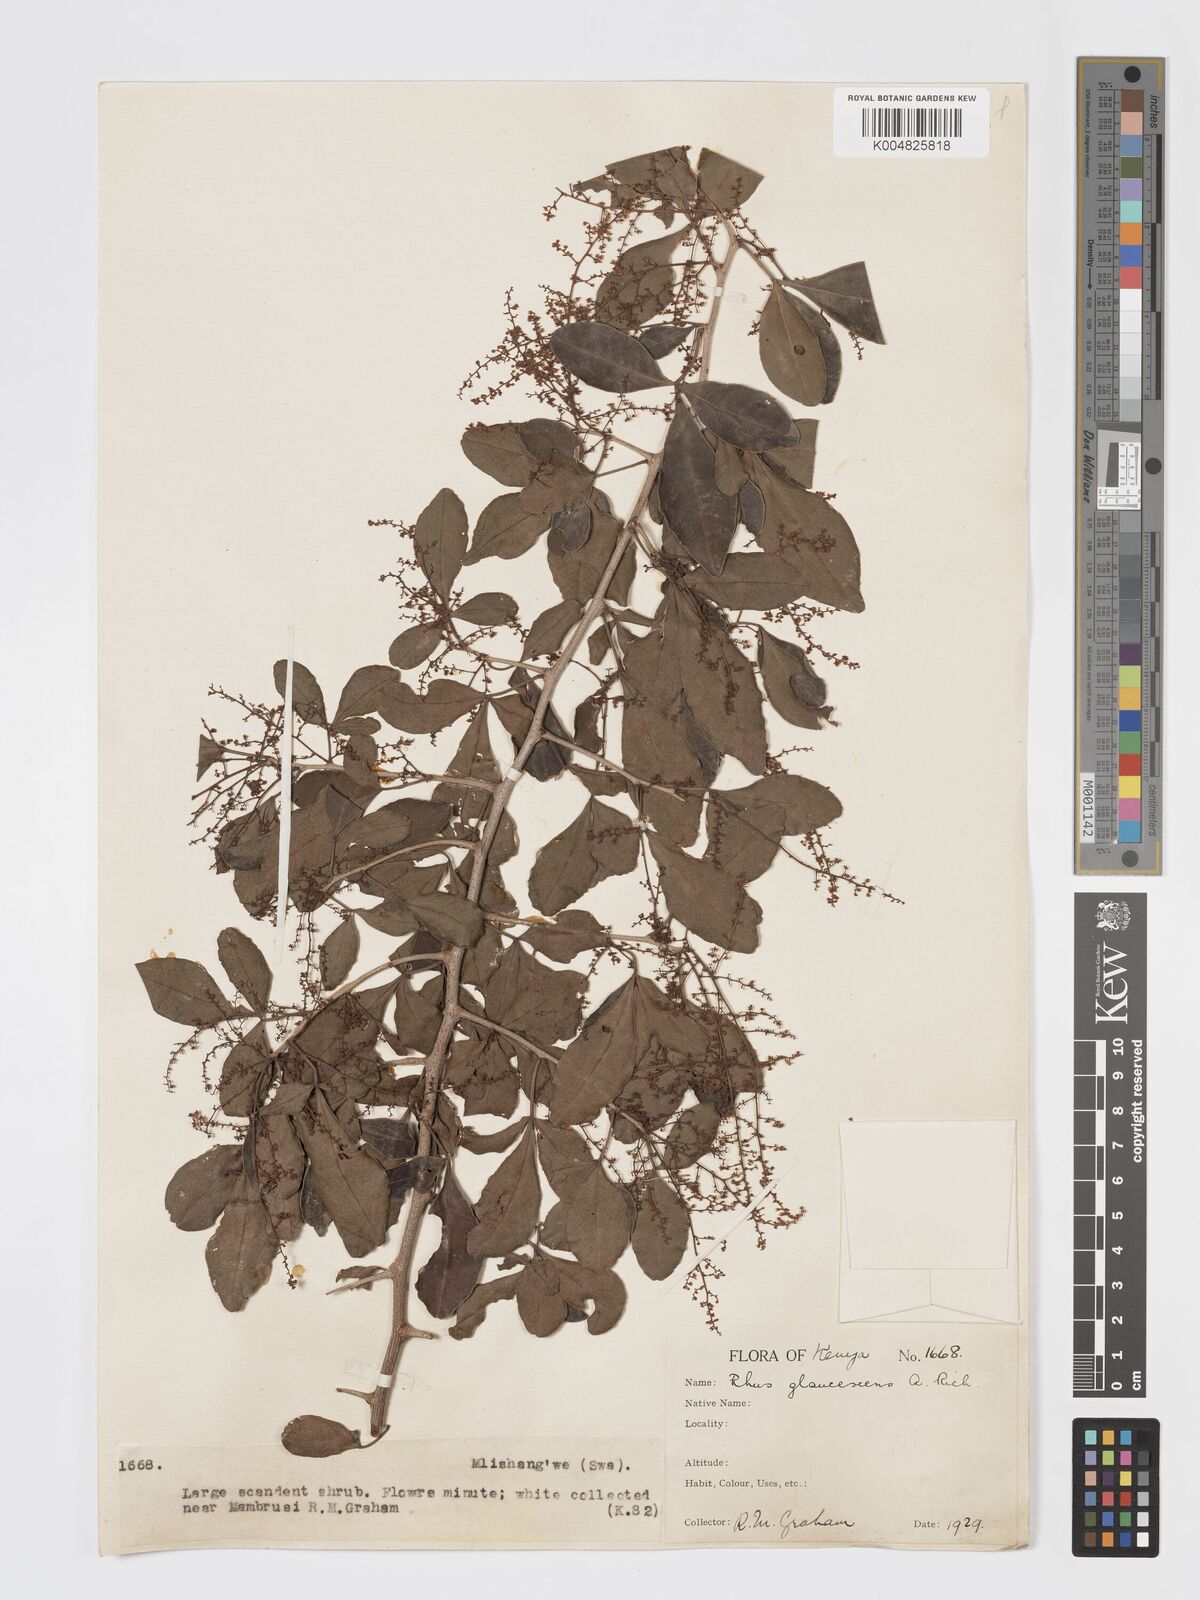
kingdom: Plantae
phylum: Tracheophyta
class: Magnoliopsida
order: Sapindales
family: Anacardiaceae
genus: Searsia
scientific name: Searsia natalensis
